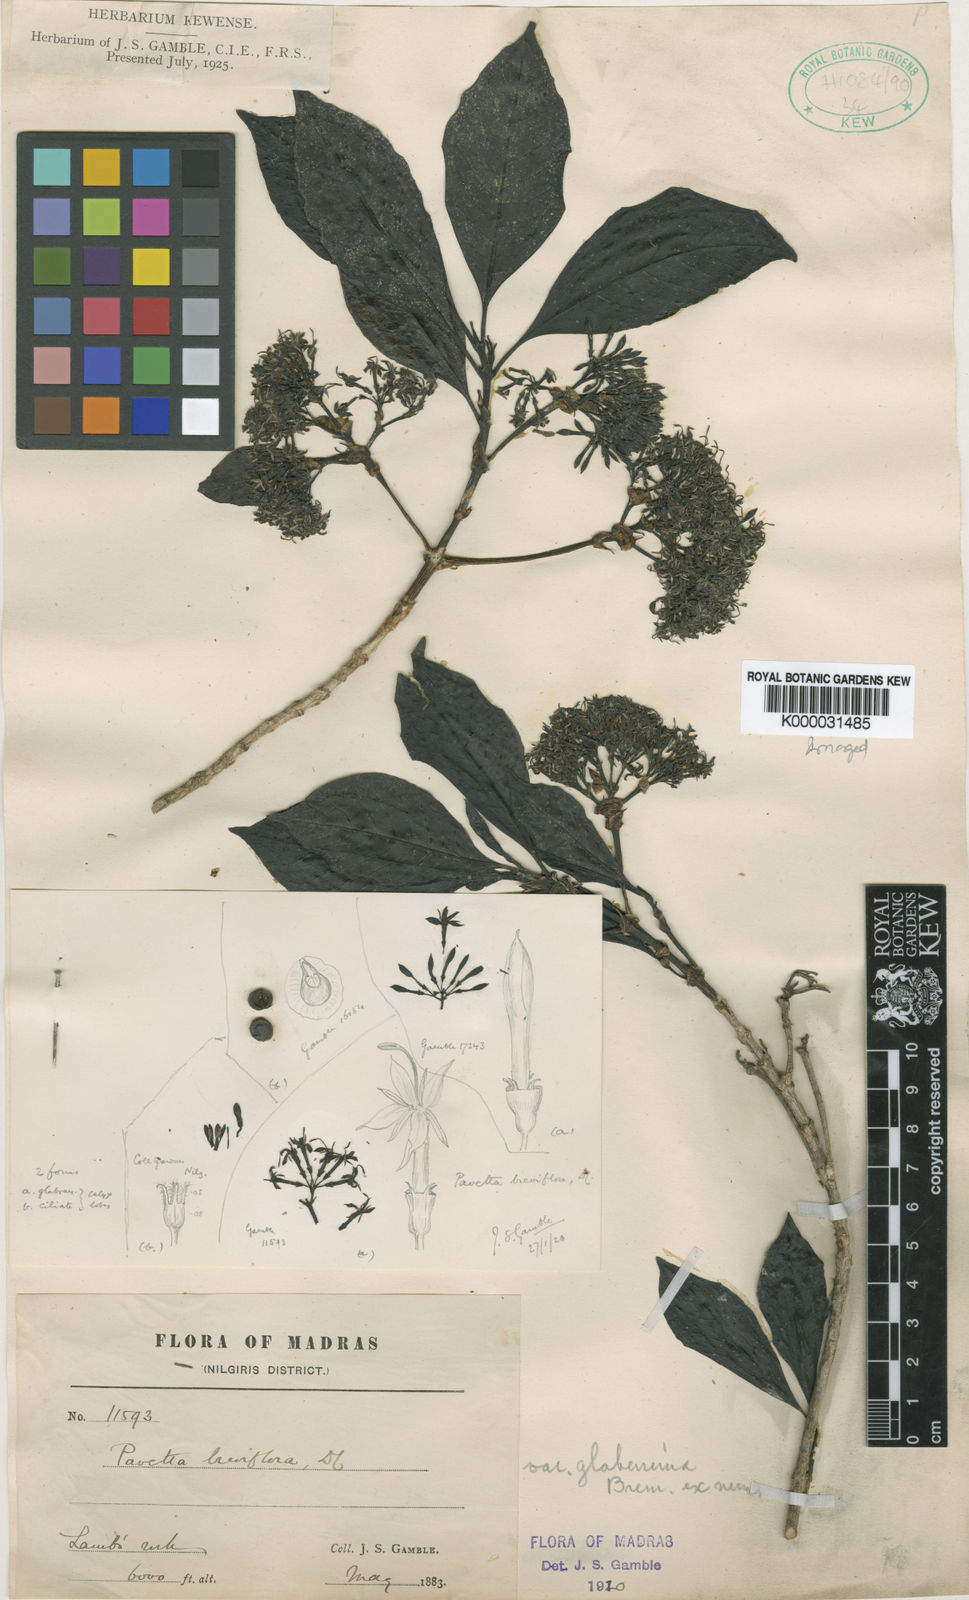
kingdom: Plantae
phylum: Tracheophyta
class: Magnoliopsida
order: Gentianales
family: Rubiaceae
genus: Pavetta
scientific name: Pavetta breviflora
